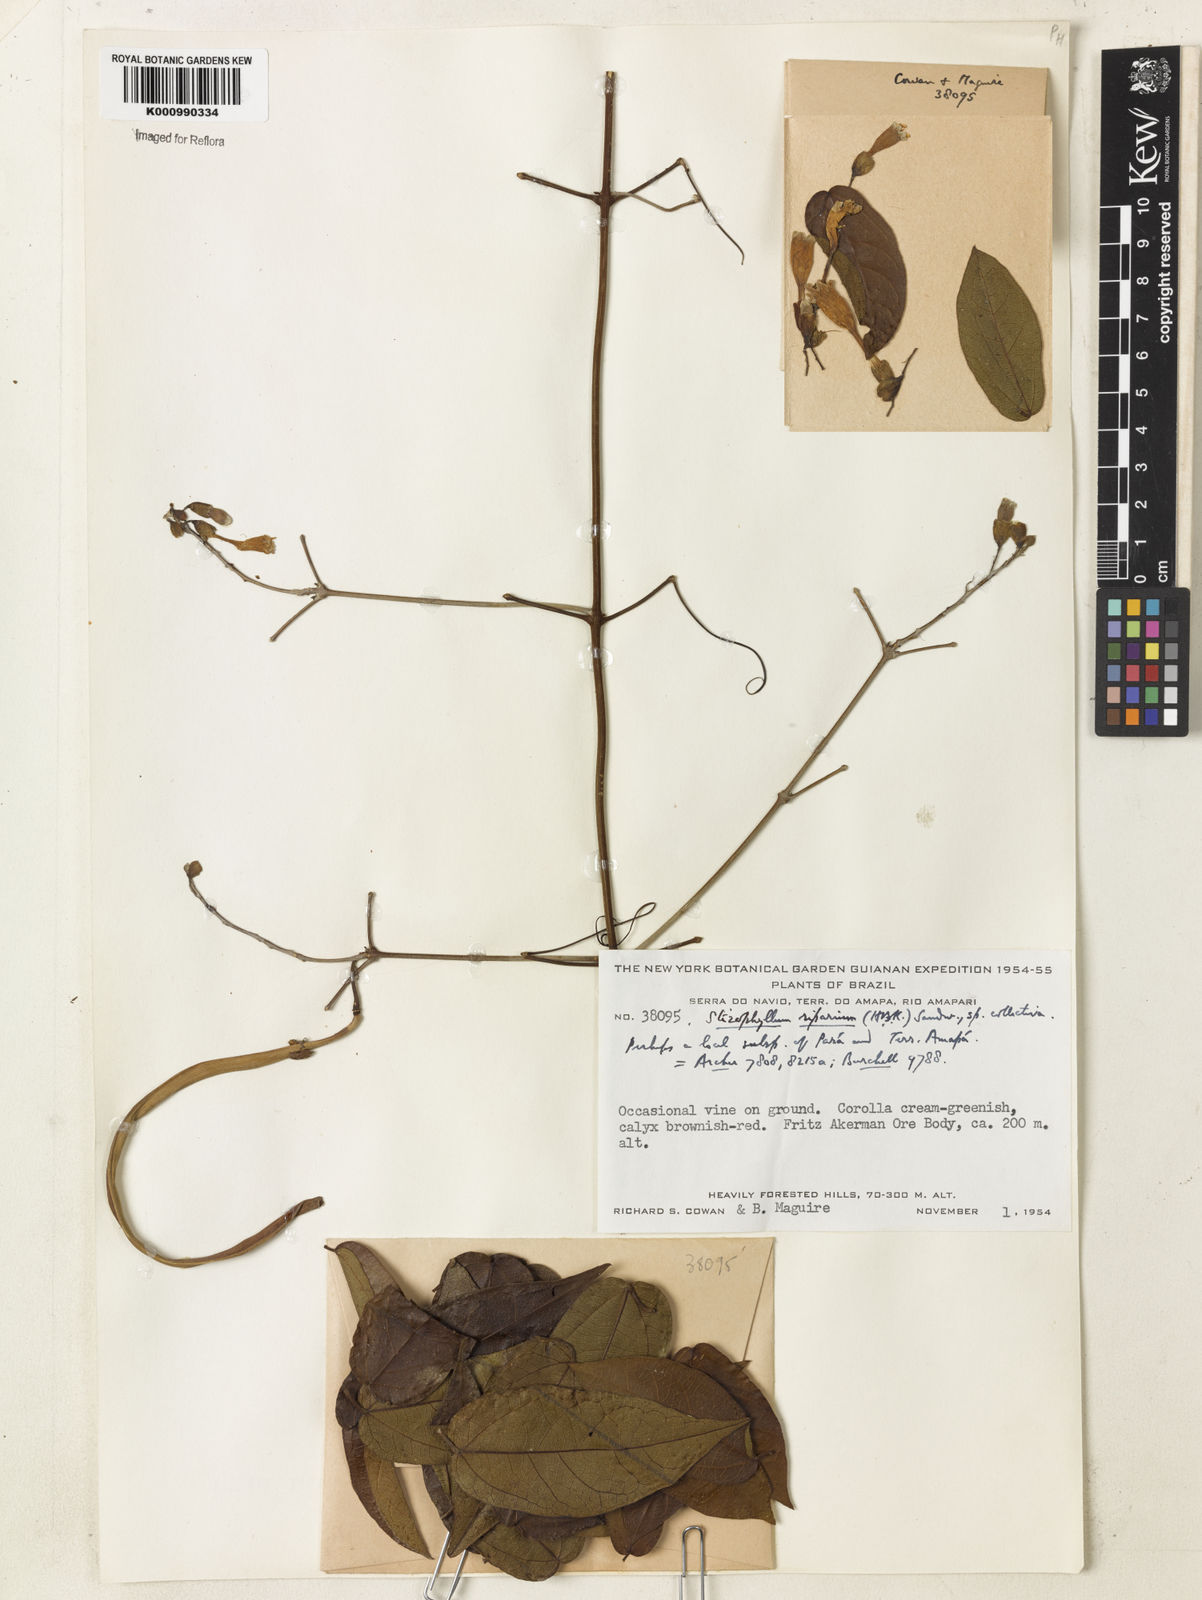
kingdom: Plantae
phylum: Tracheophyta
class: Magnoliopsida
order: Lamiales
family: Bignoniaceae
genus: Stizophyllum
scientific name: Stizophyllum
